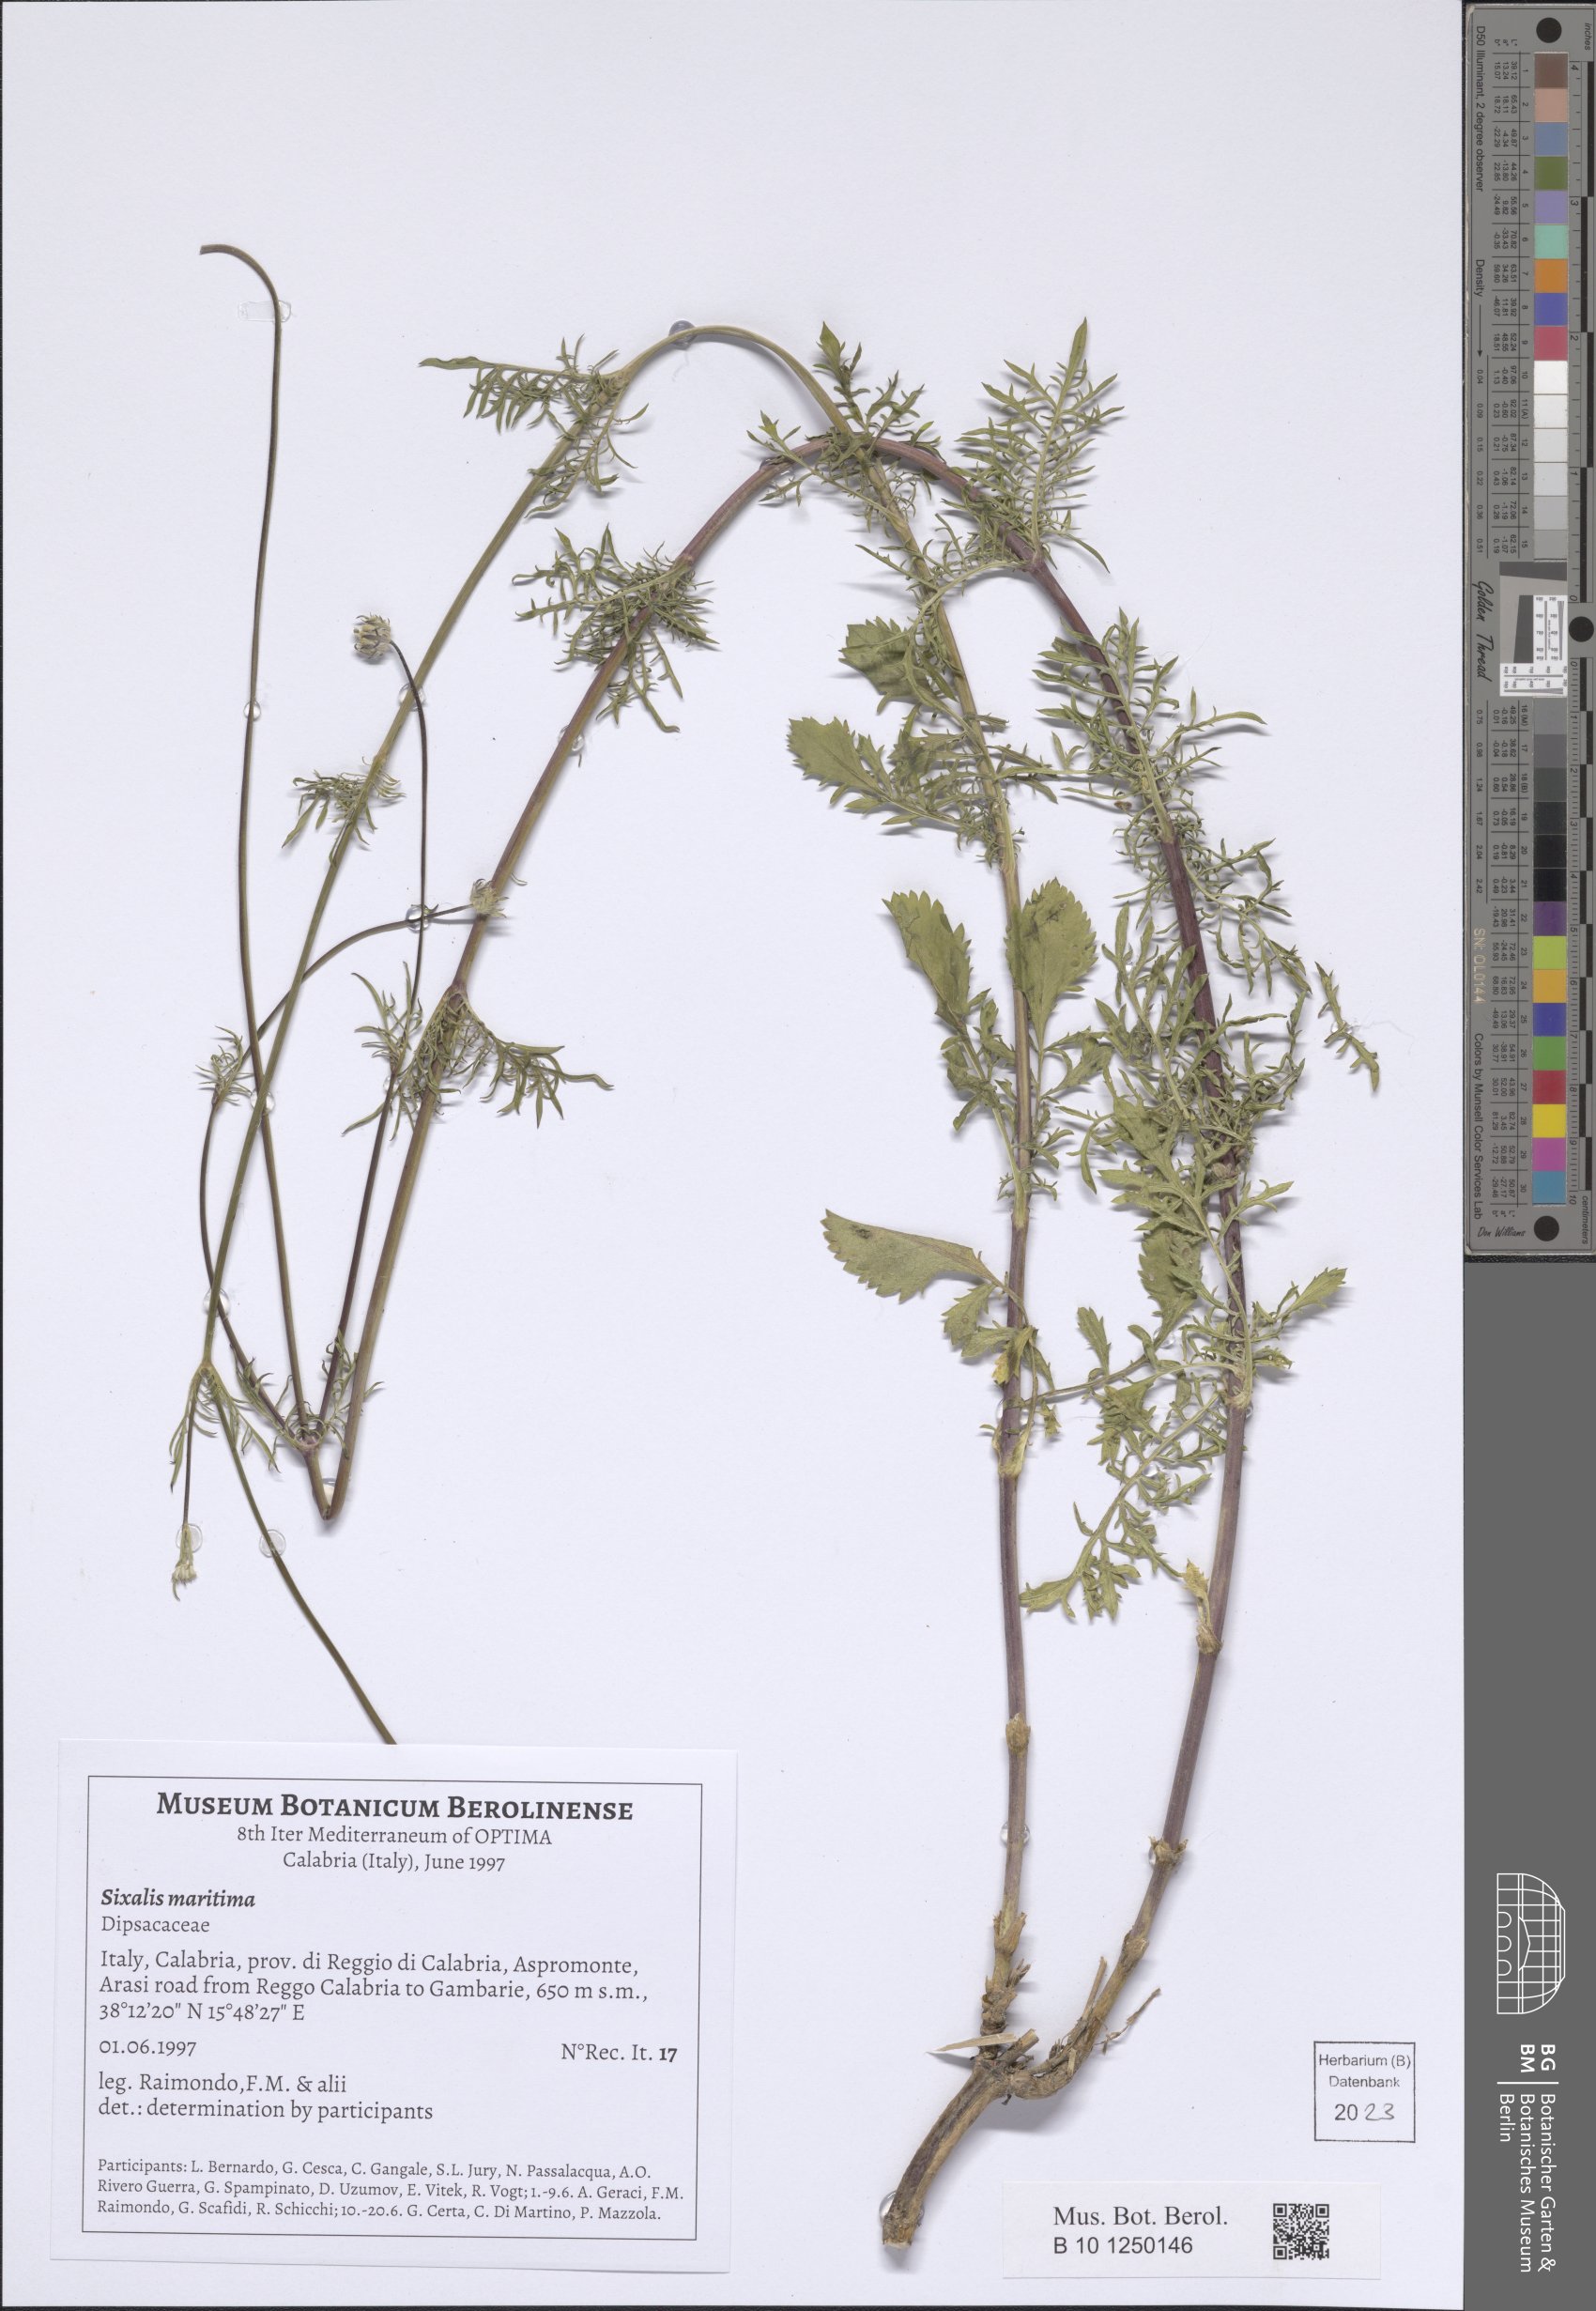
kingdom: Plantae
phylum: Tracheophyta
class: Magnoliopsida
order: Dipsacales
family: Caprifoliaceae
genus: Sixalix
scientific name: Sixalix maritima
